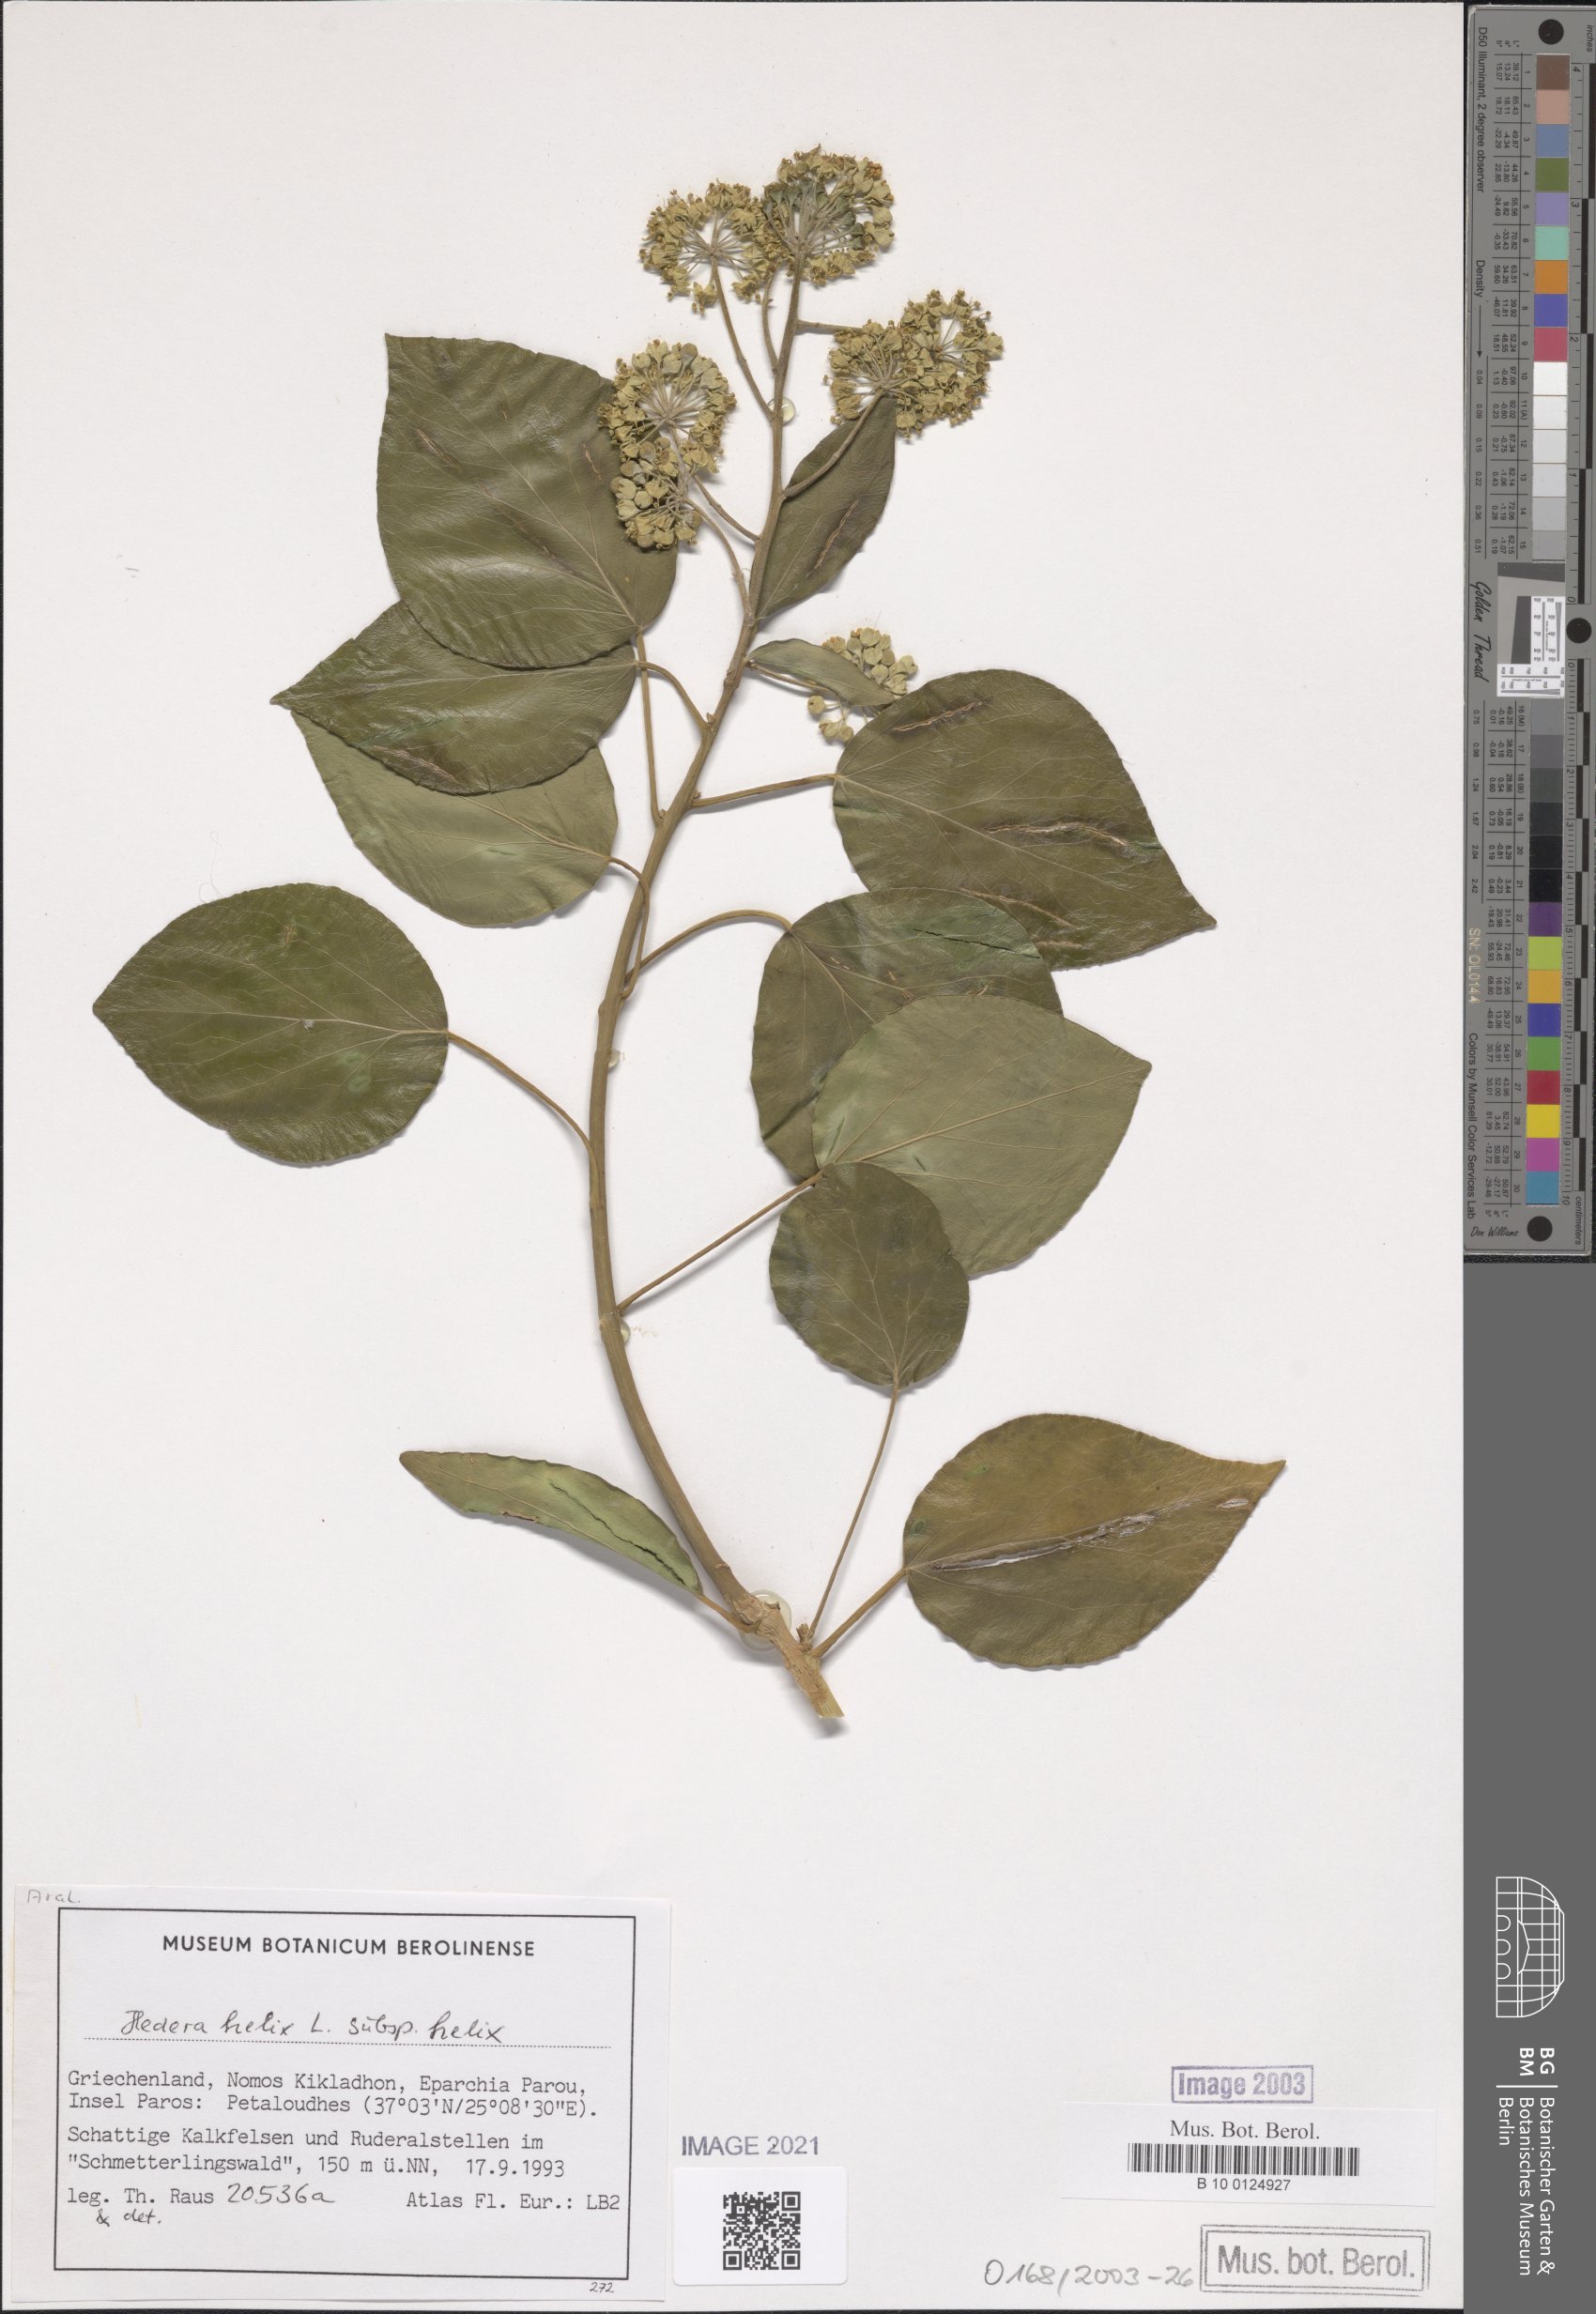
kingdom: Plantae
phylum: Tracheophyta
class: Magnoliopsida
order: Apiales
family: Araliaceae
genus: Hedera
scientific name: Hedera helix
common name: Ivy
